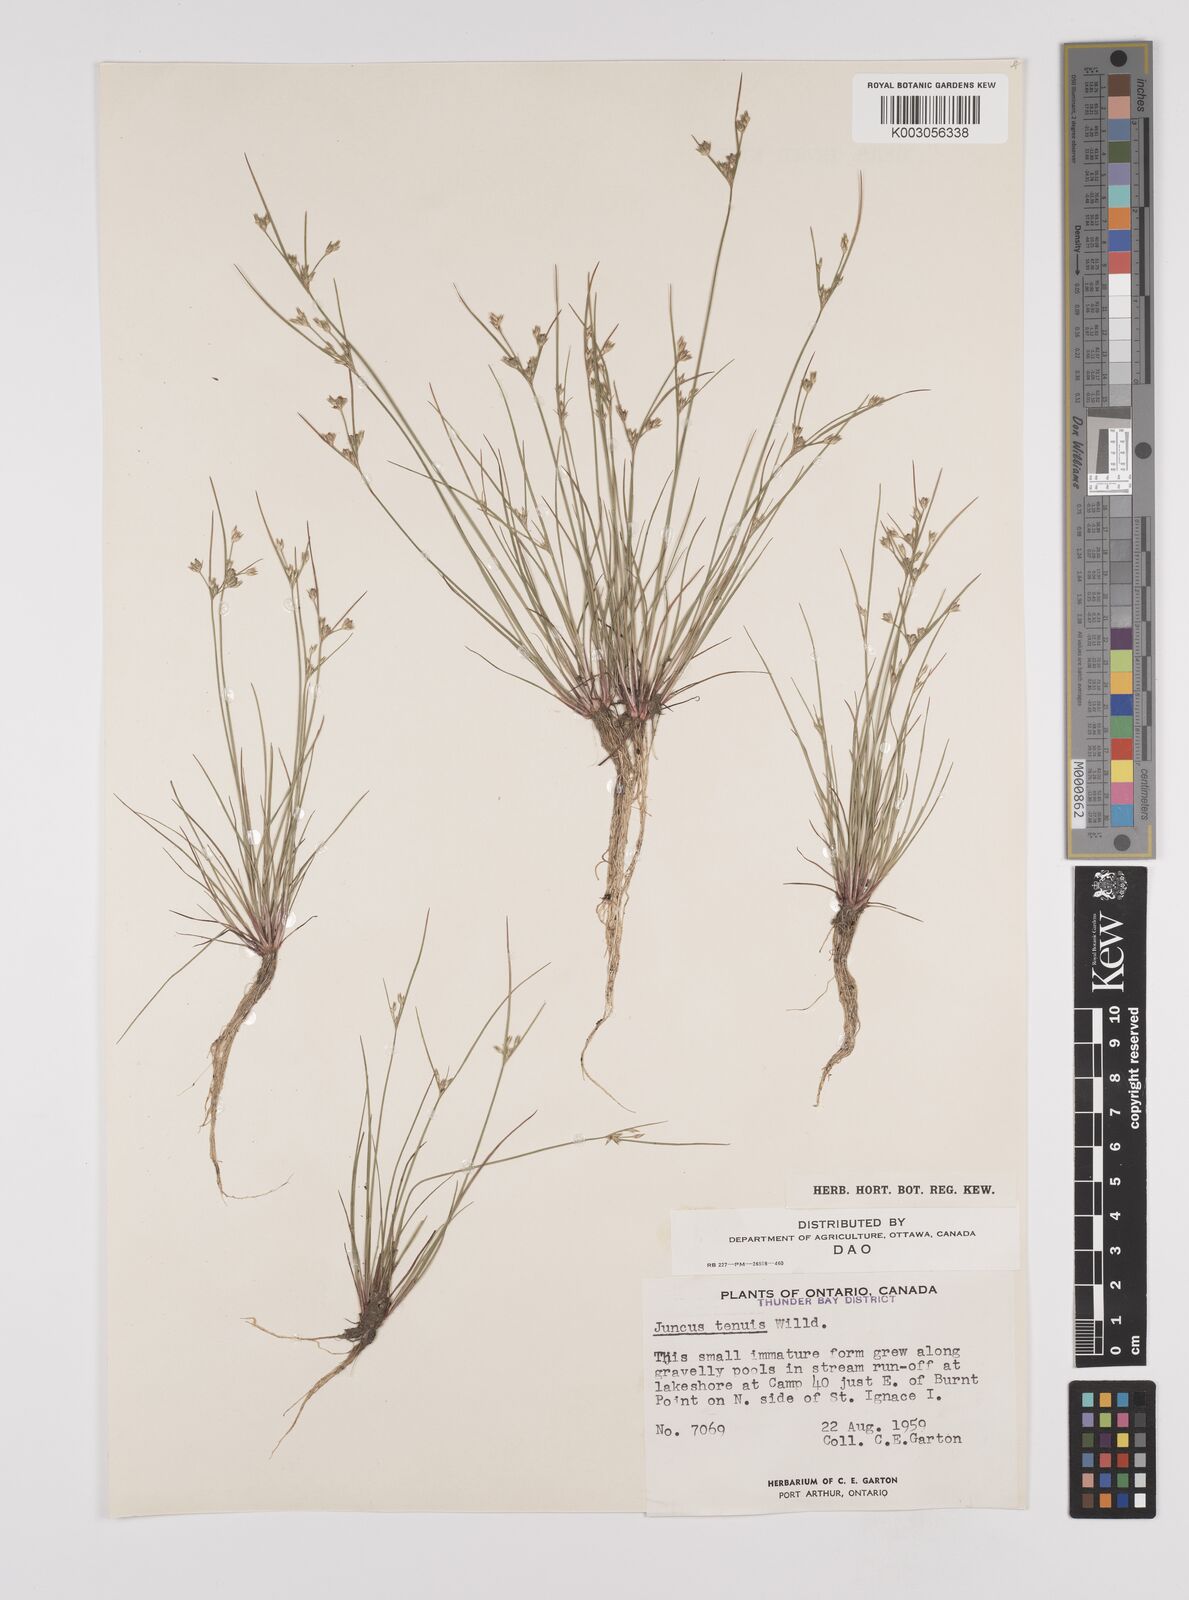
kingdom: Plantae
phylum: Tracheophyta
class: Liliopsida
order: Poales
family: Juncaceae
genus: Juncus
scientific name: Juncus tenuis
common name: Slender rush
